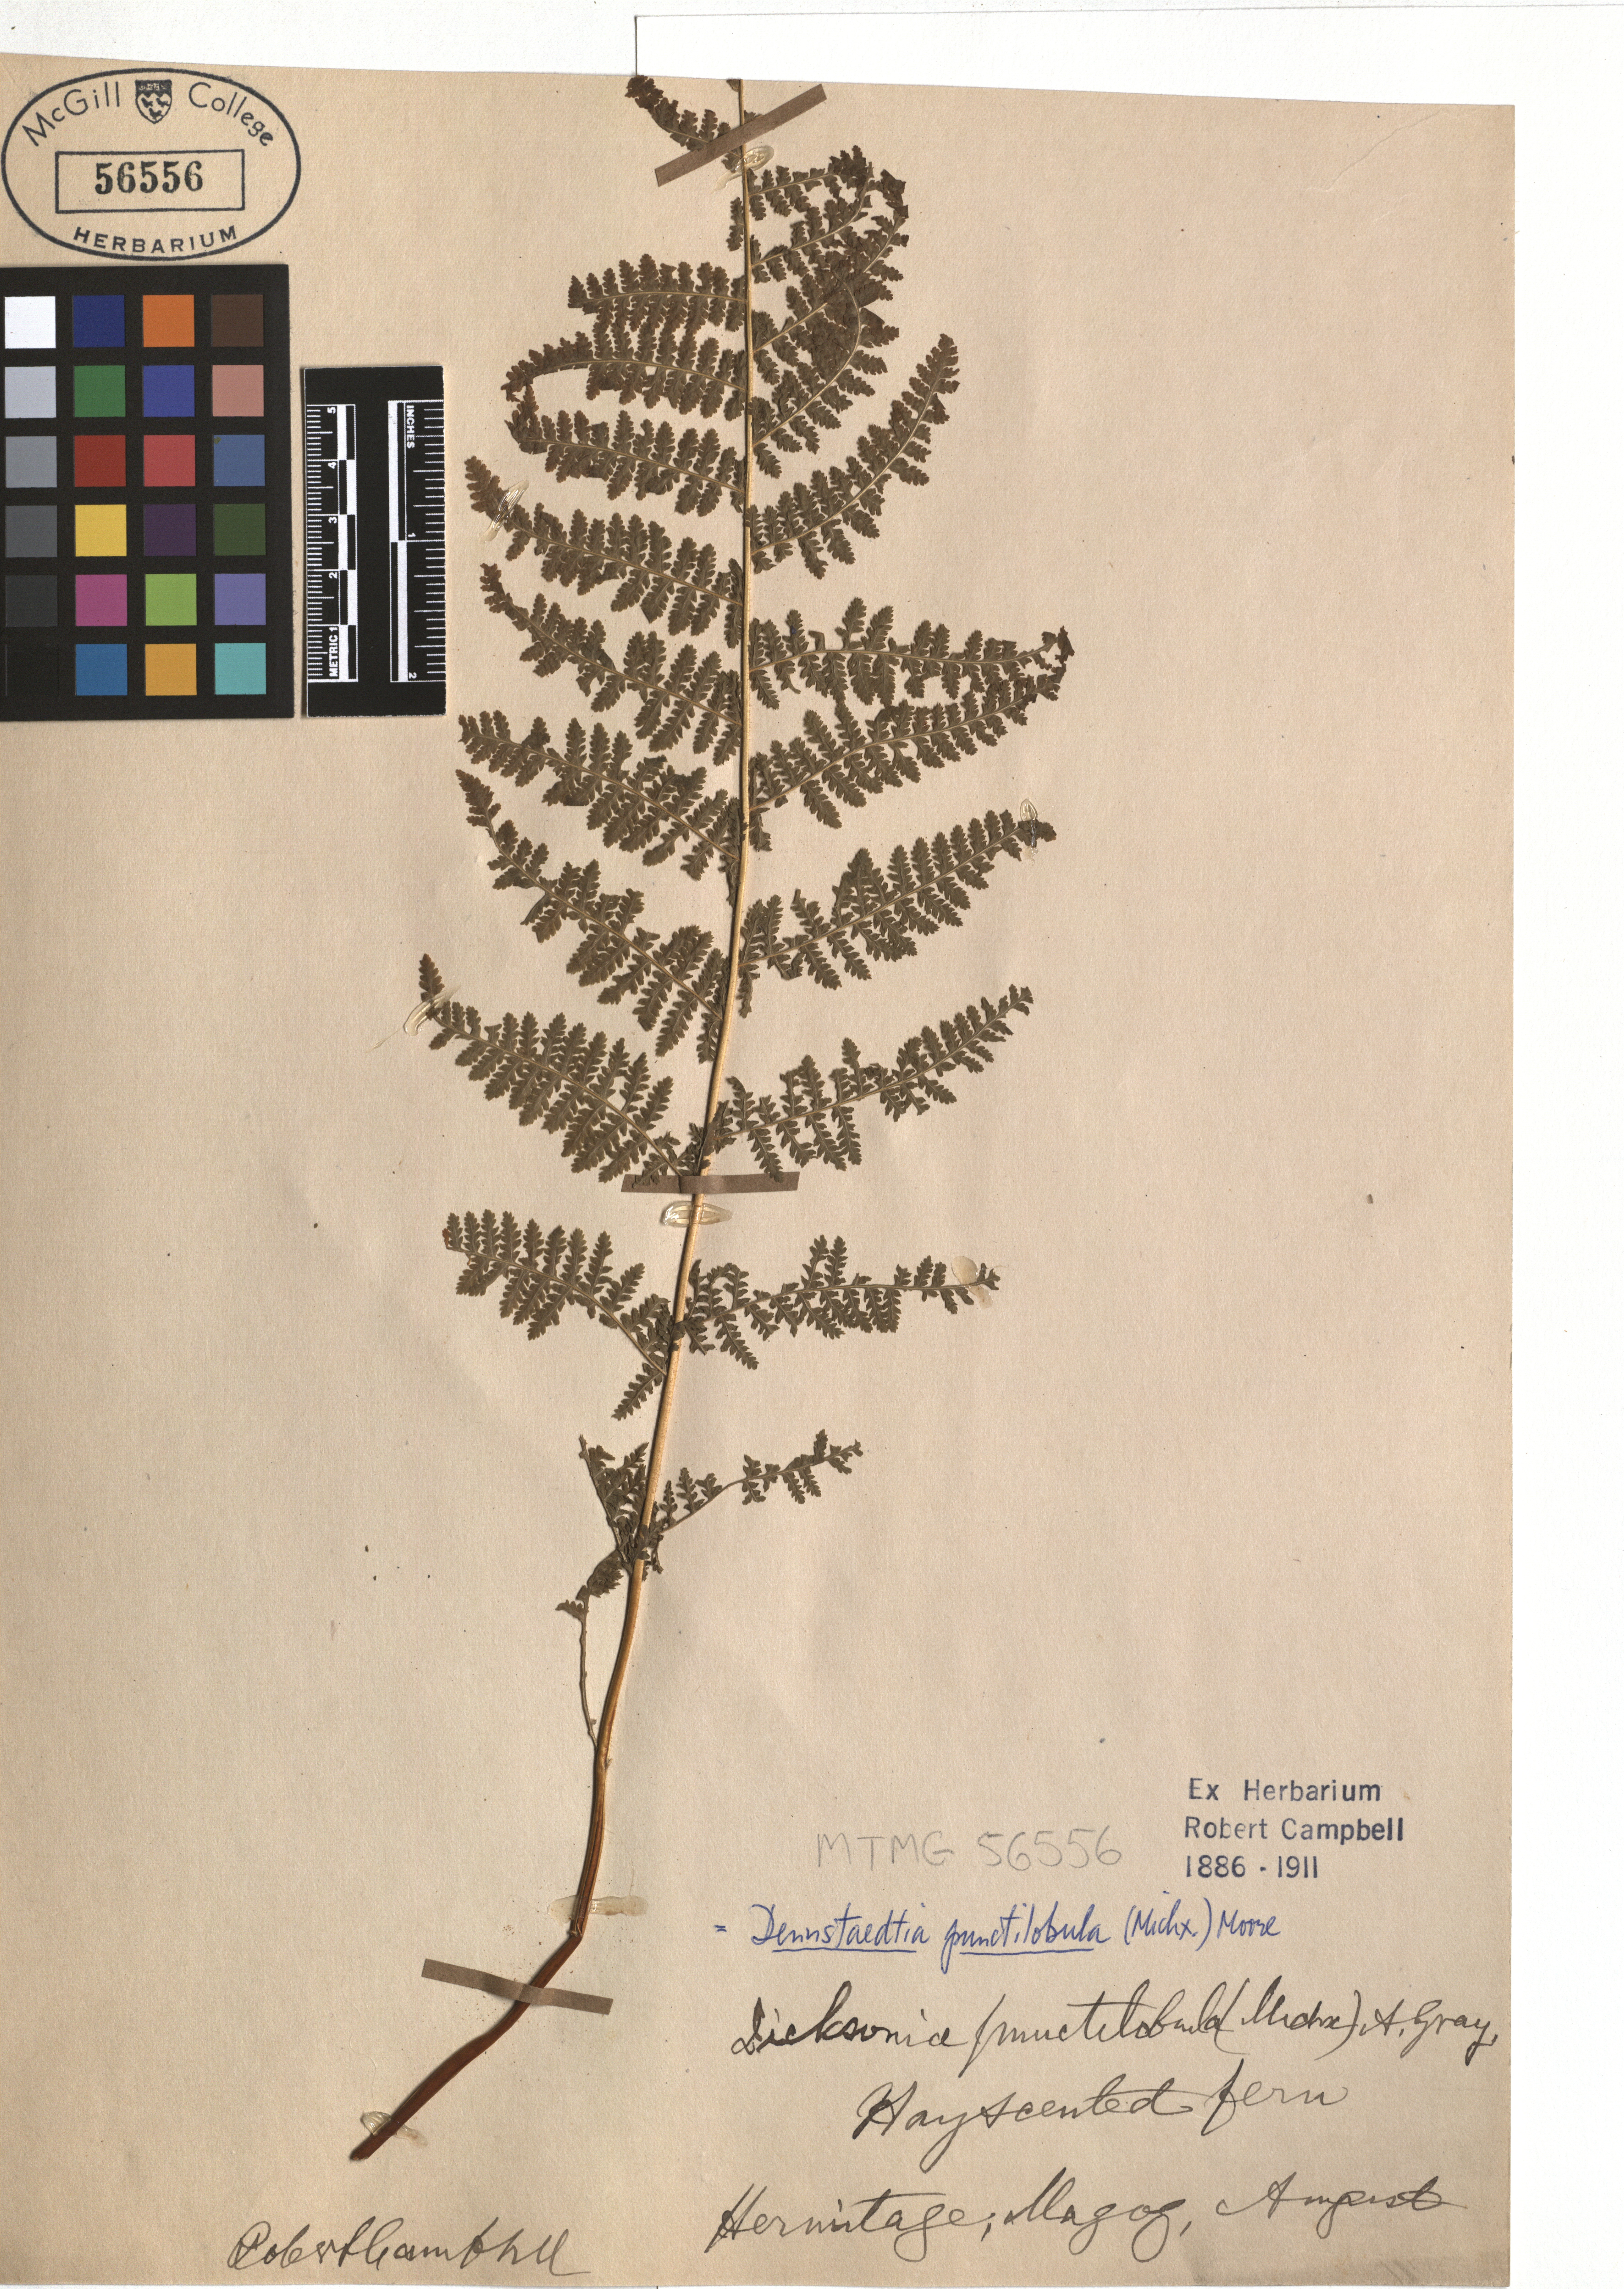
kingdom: Plantae
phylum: Tracheophyta
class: Polypodiopsida
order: Polypodiales
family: Dennstaedtiaceae
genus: Sitobolium
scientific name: Sitobolium punctilobum
